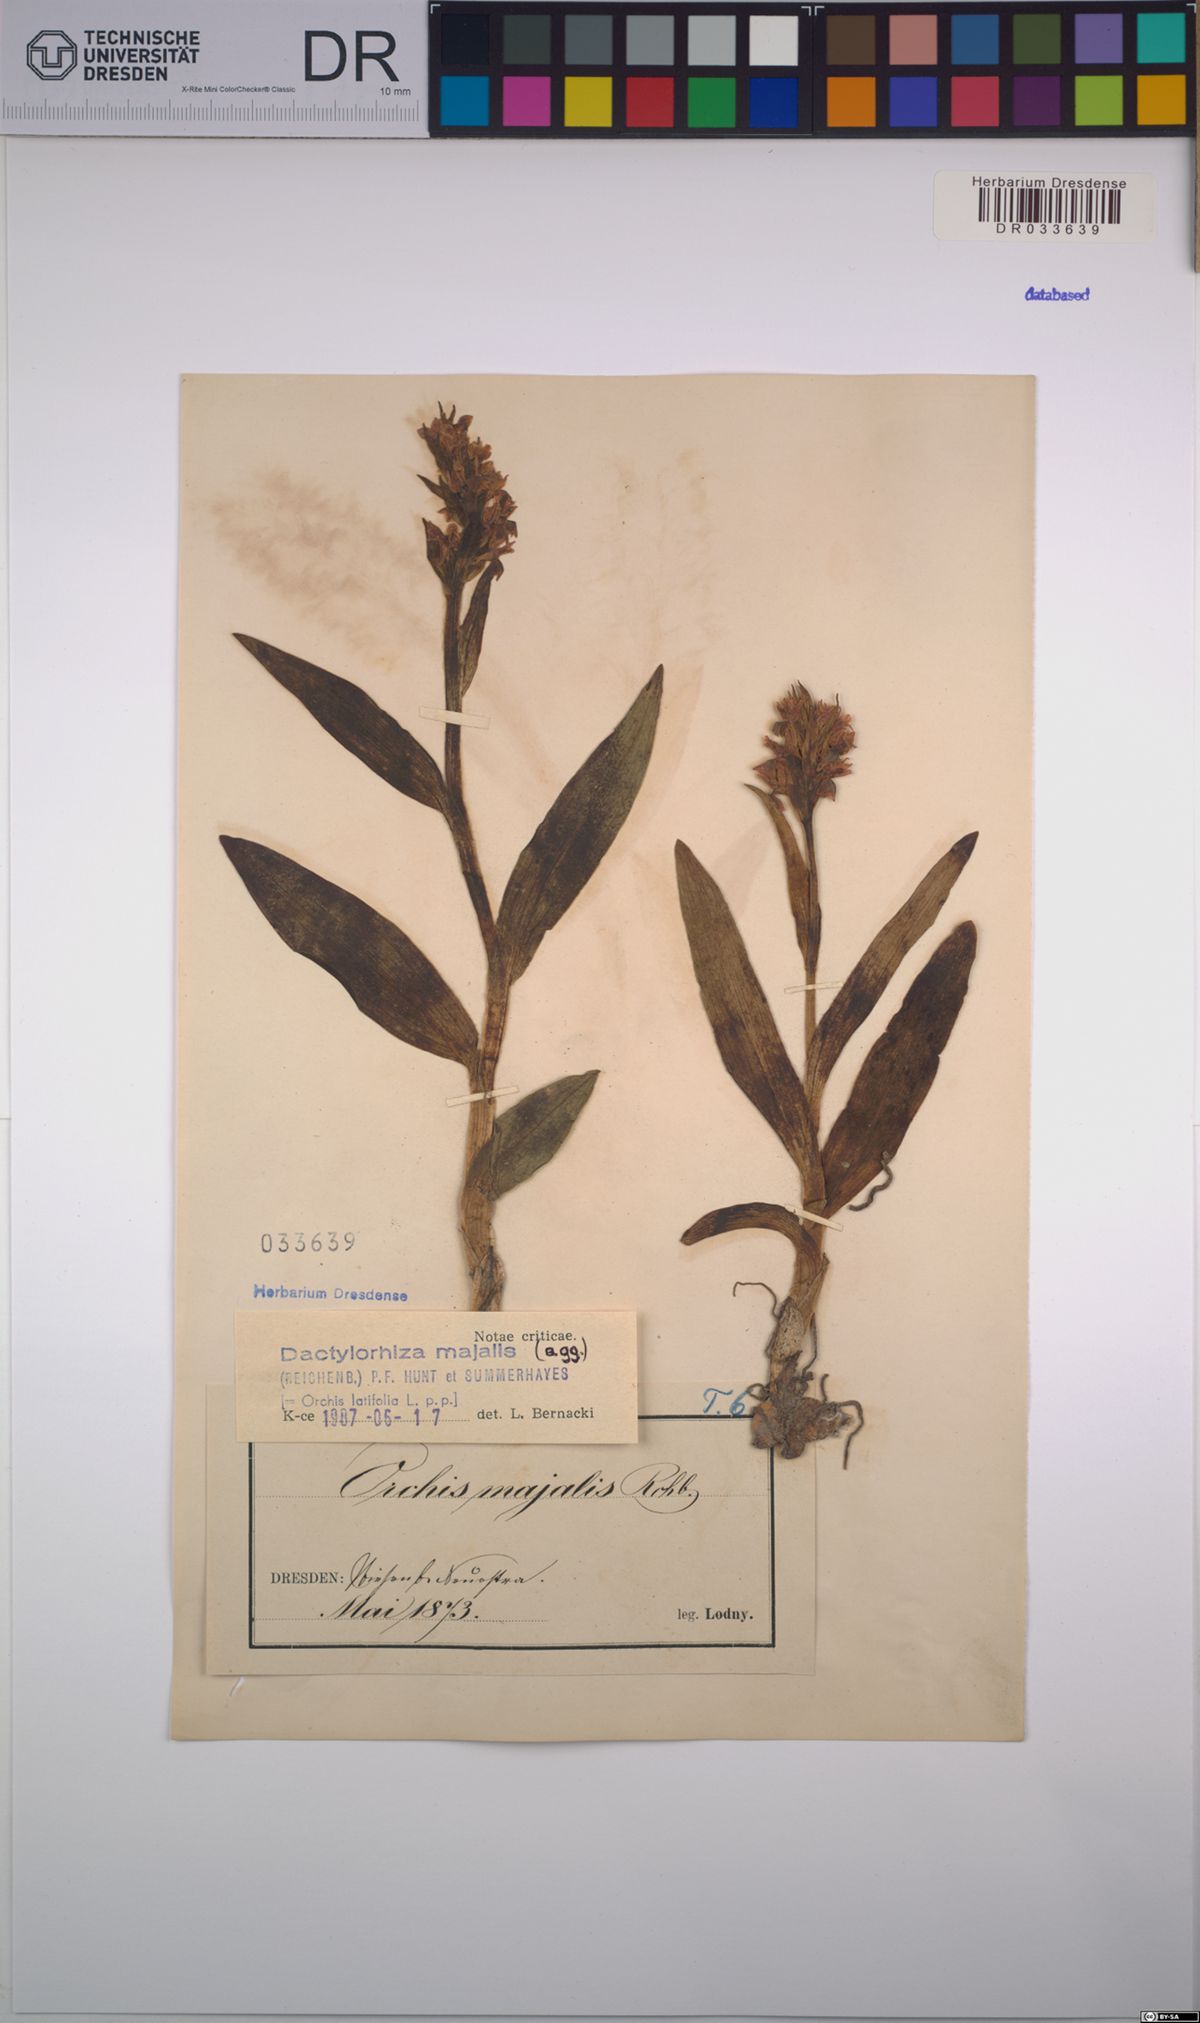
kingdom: Plantae
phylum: Tracheophyta
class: Liliopsida
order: Asparagales
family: Orchidaceae
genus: Dactylorhiza
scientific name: Dactylorhiza majalis
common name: Marsh orchid
